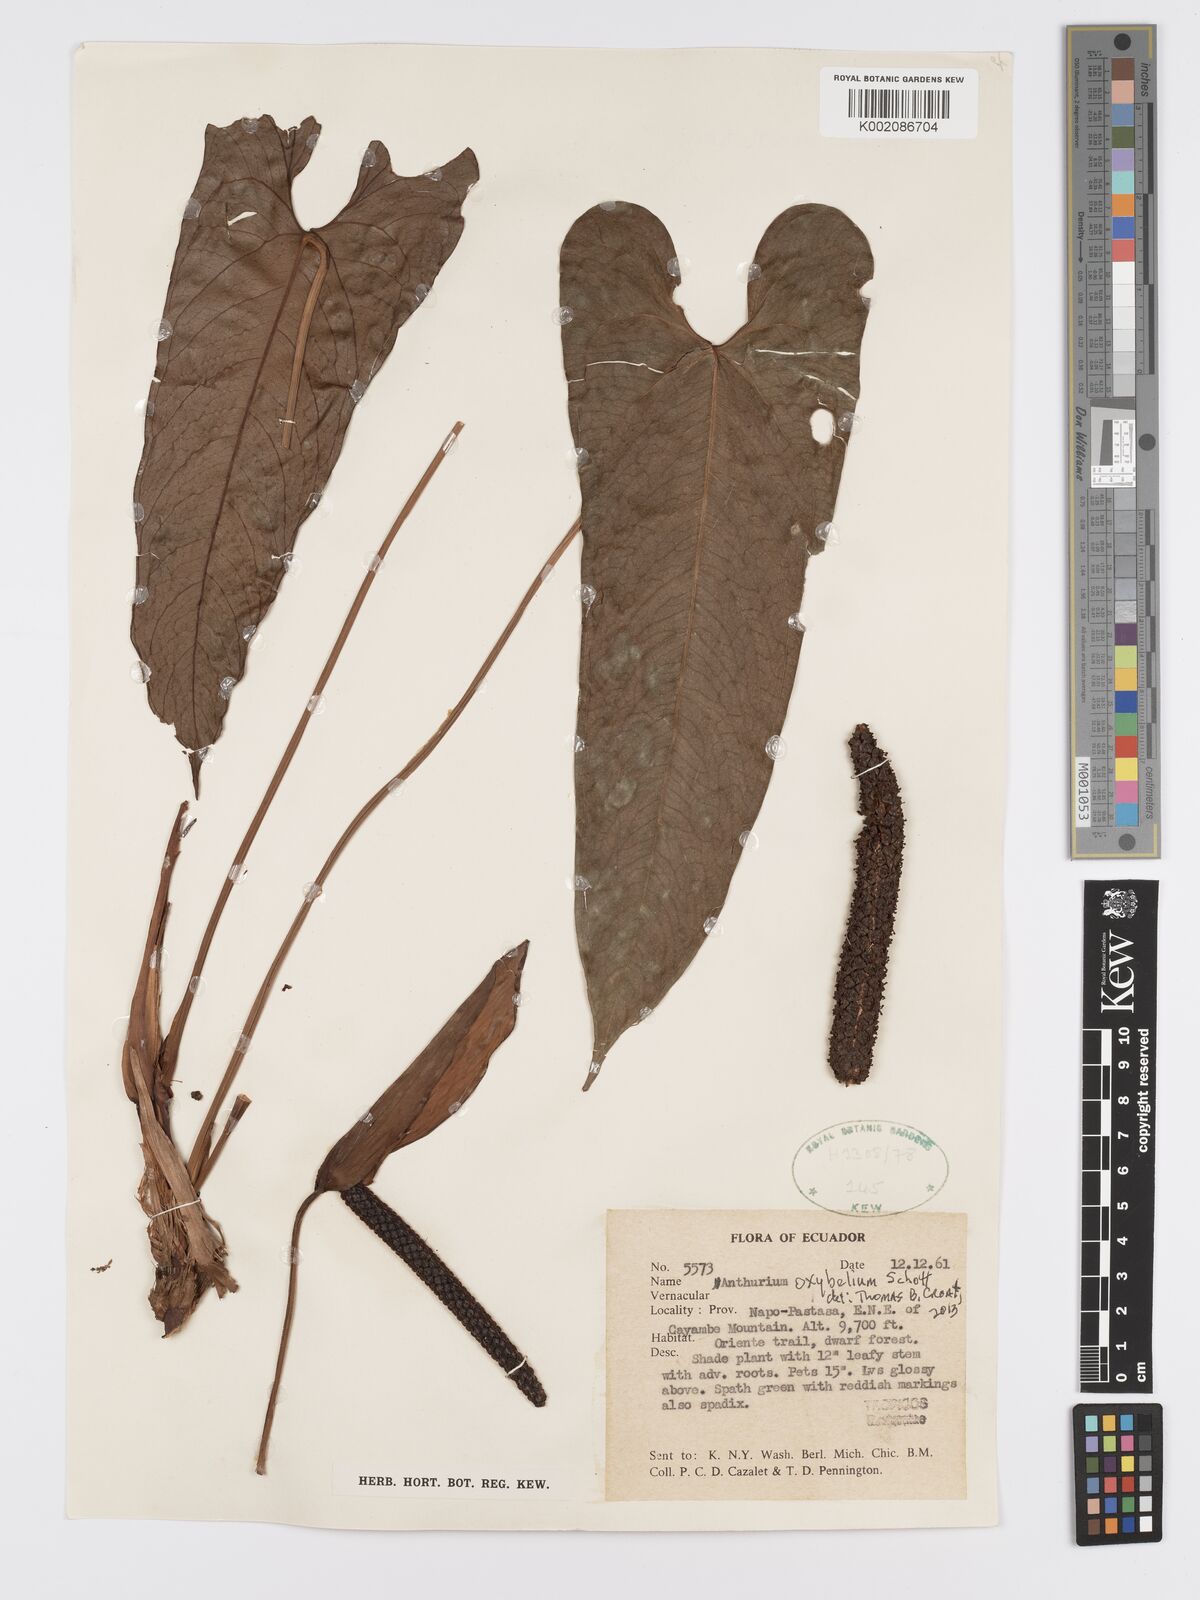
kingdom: Plantae
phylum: Tracheophyta
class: Liliopsida
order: Alismatales
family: Araceae
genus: Anthurium
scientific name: Anthurium oxybelium
